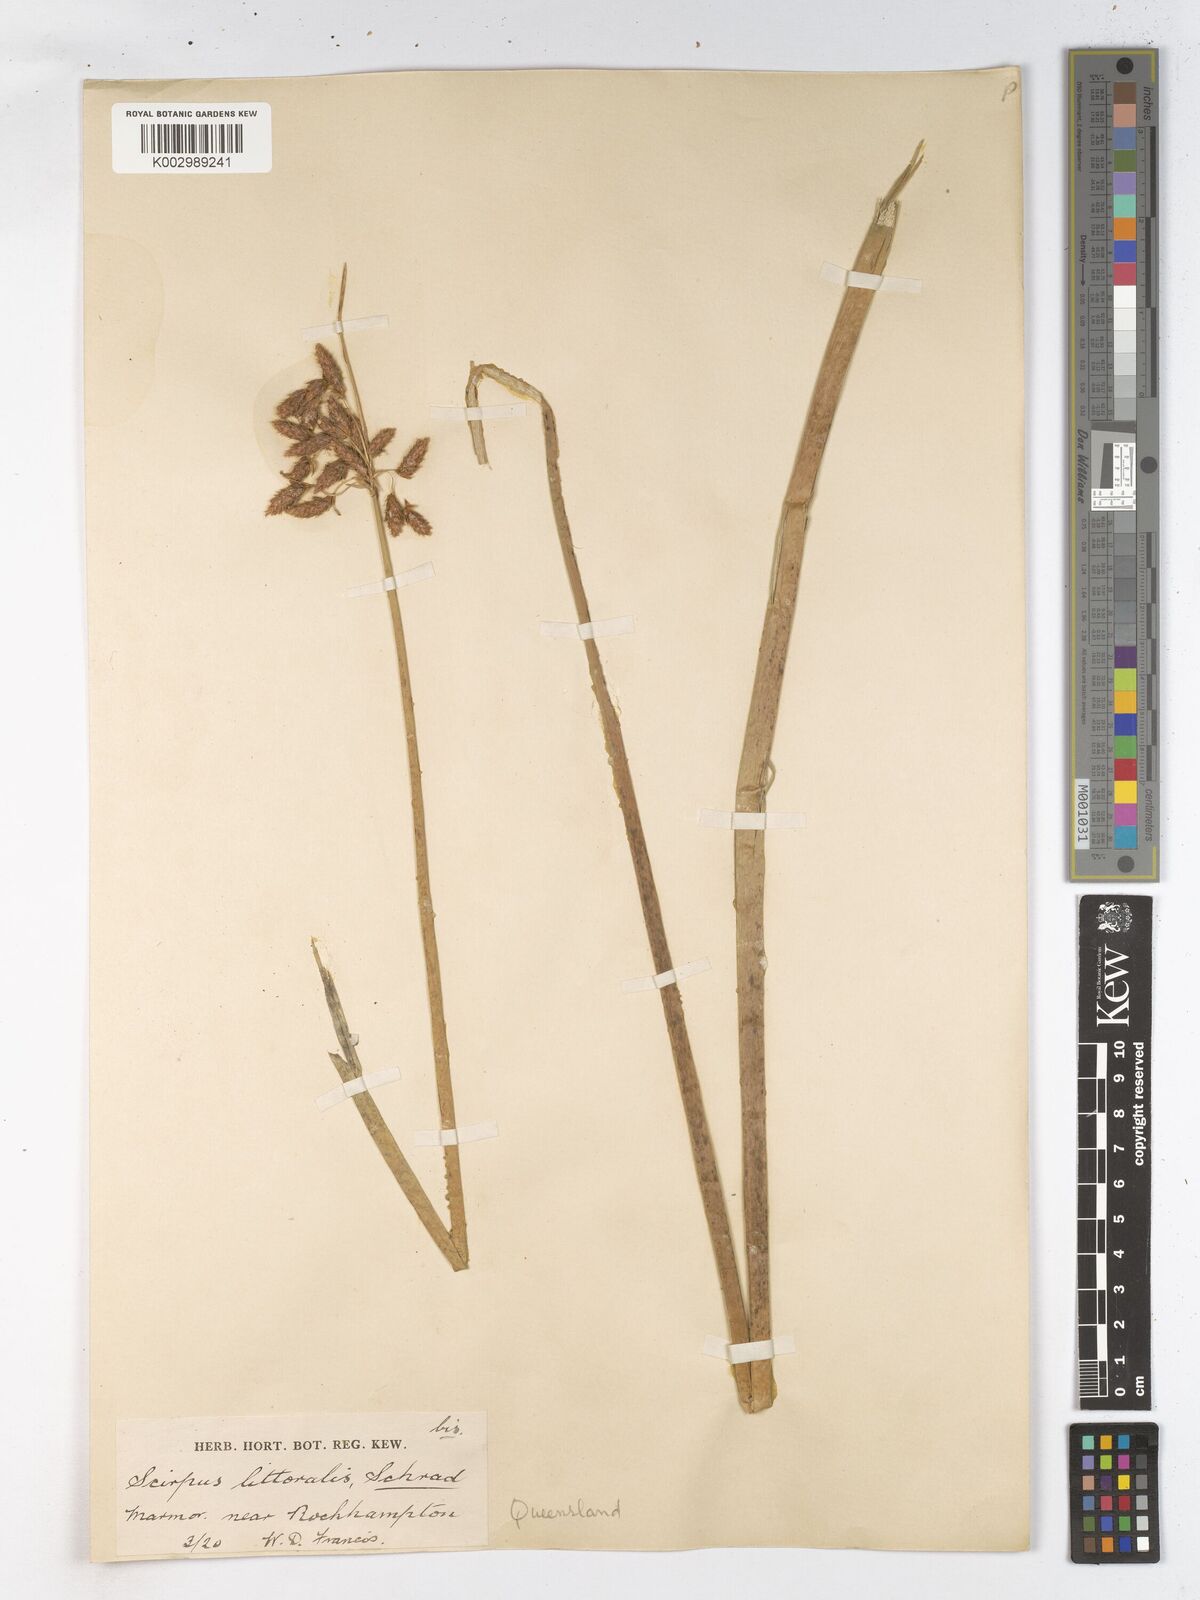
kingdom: Plantae
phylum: Tracheophyta
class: Liliopsida
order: Poales
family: Cyperaceae
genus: Schoenoplectus
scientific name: Schoenoplectus litoralis
